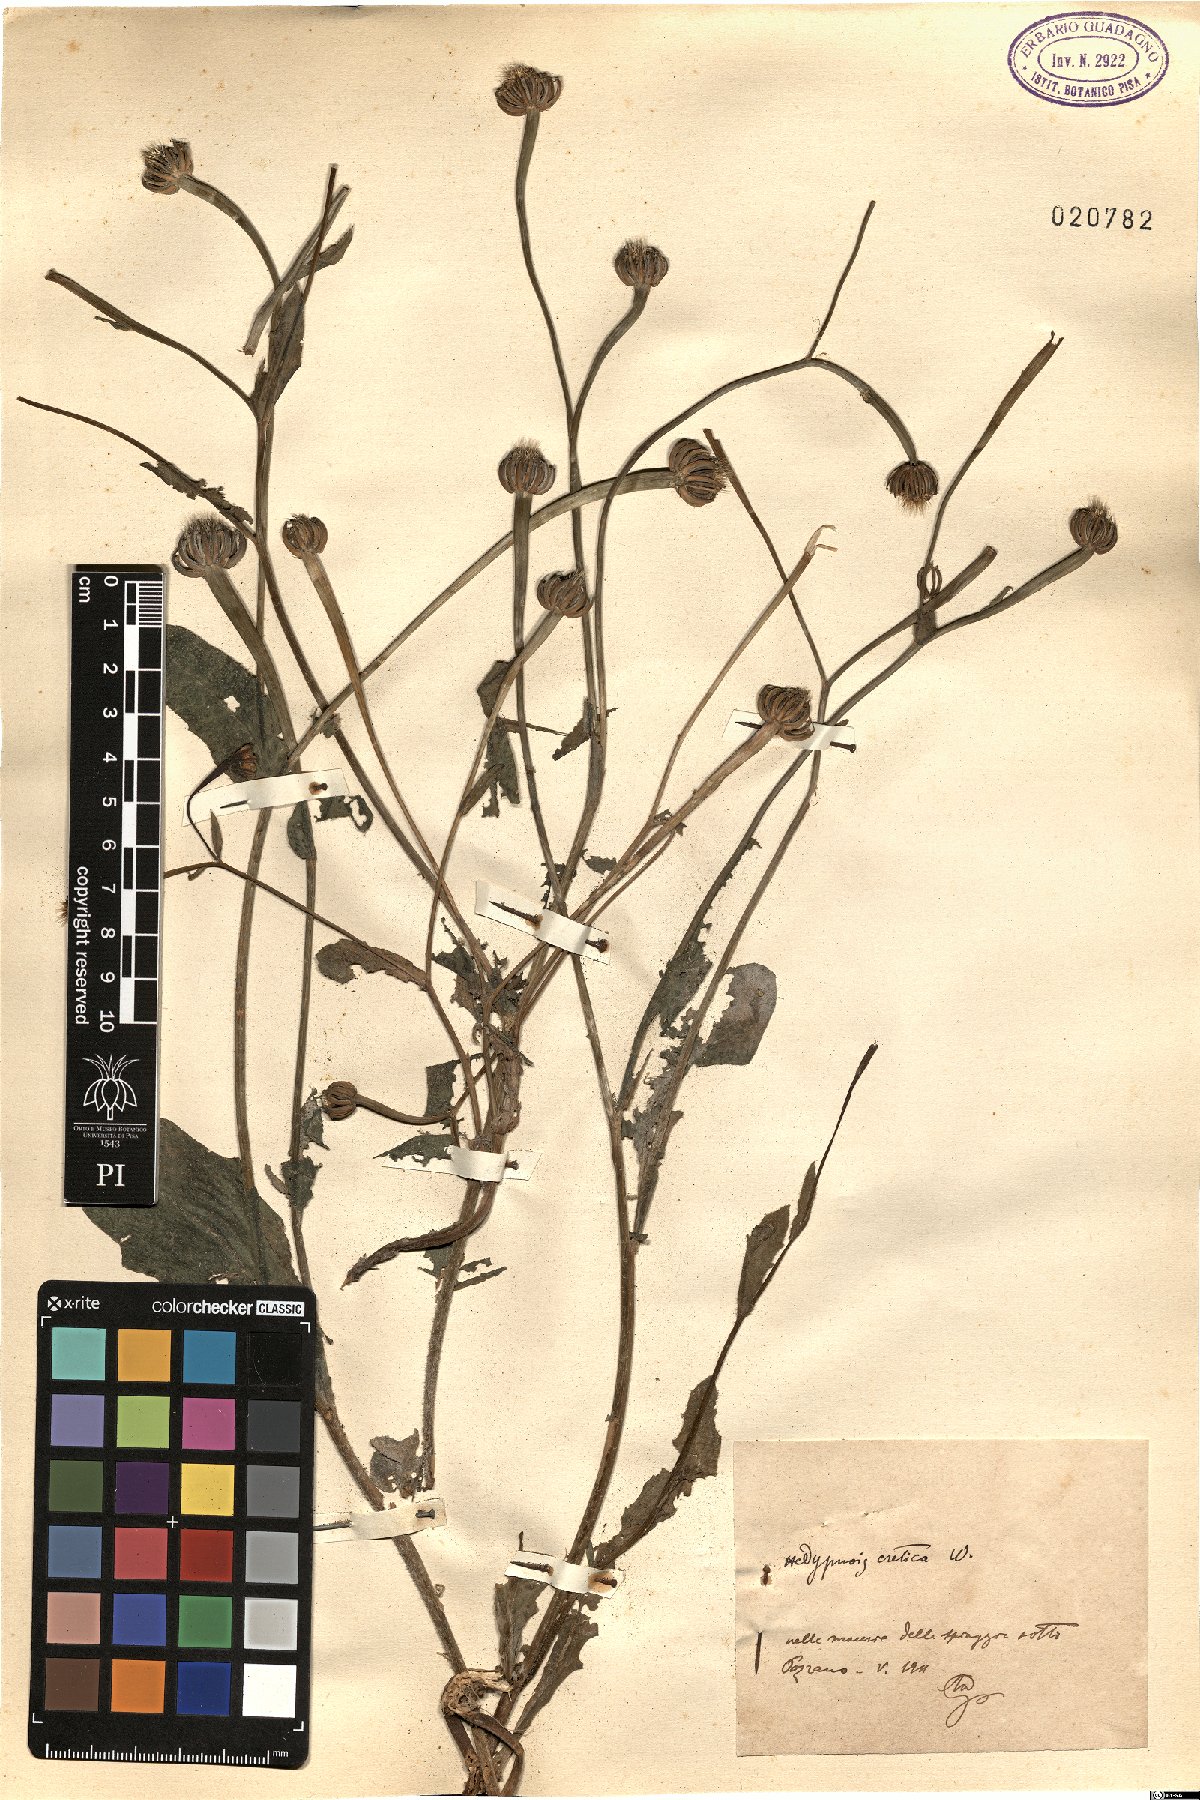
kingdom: Plantae
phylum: Tracheophyta
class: Magnoliopsida
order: Asterales
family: Asteraceae
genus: Hedypnois
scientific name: Hedypnois rhagadioloides
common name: Cretan weed
